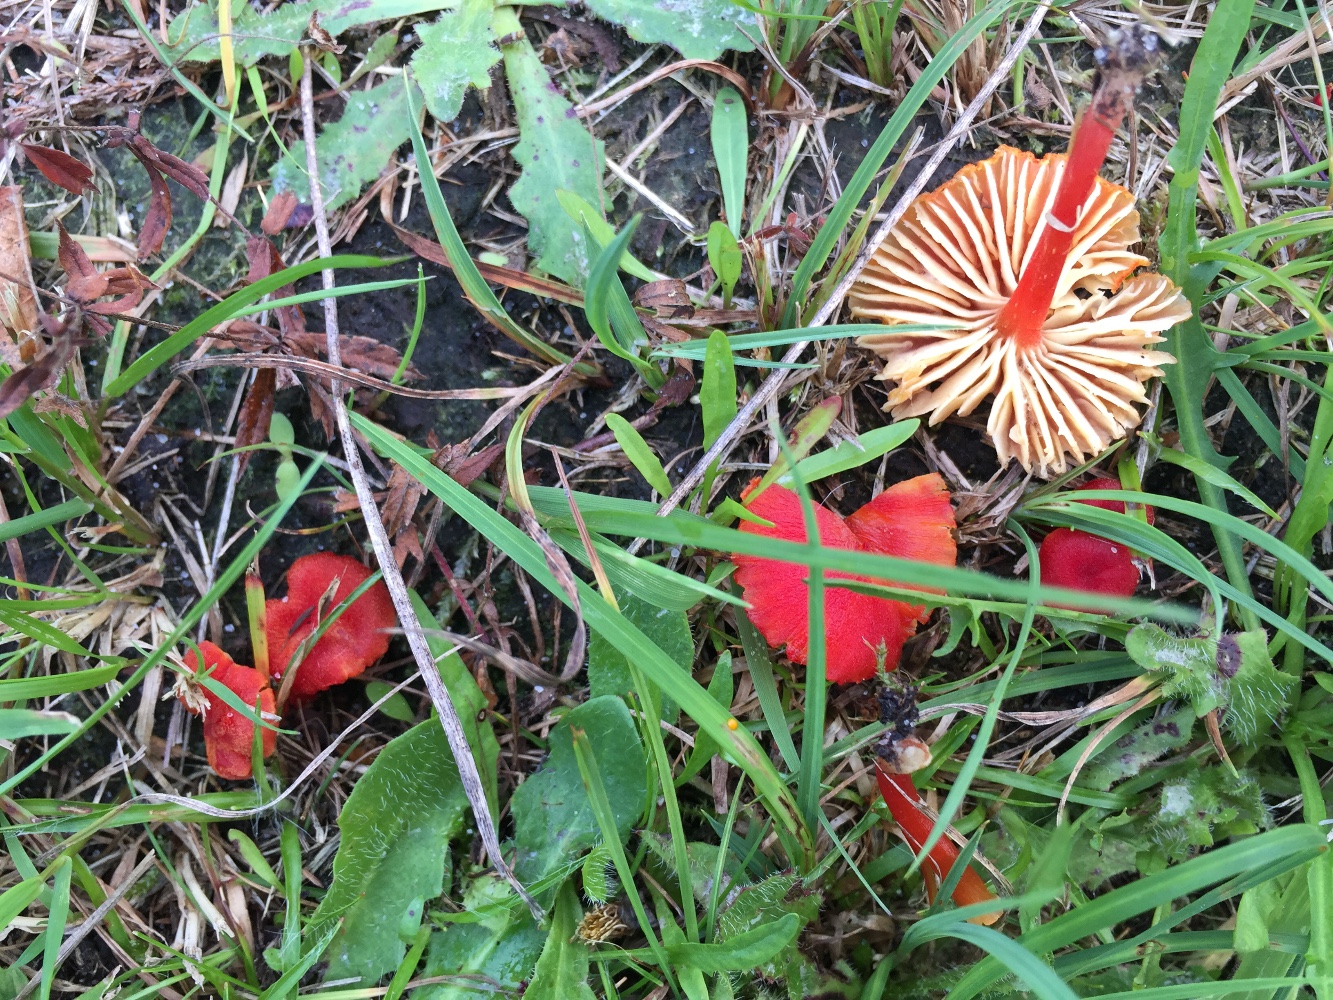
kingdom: Fungi
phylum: Basidiomycota
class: Agaricomycetes
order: Agaricales
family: Hygrophoraceae
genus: Hygrocybe
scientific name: Hygrocybe helobia
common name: hvidløgs-vokshat
